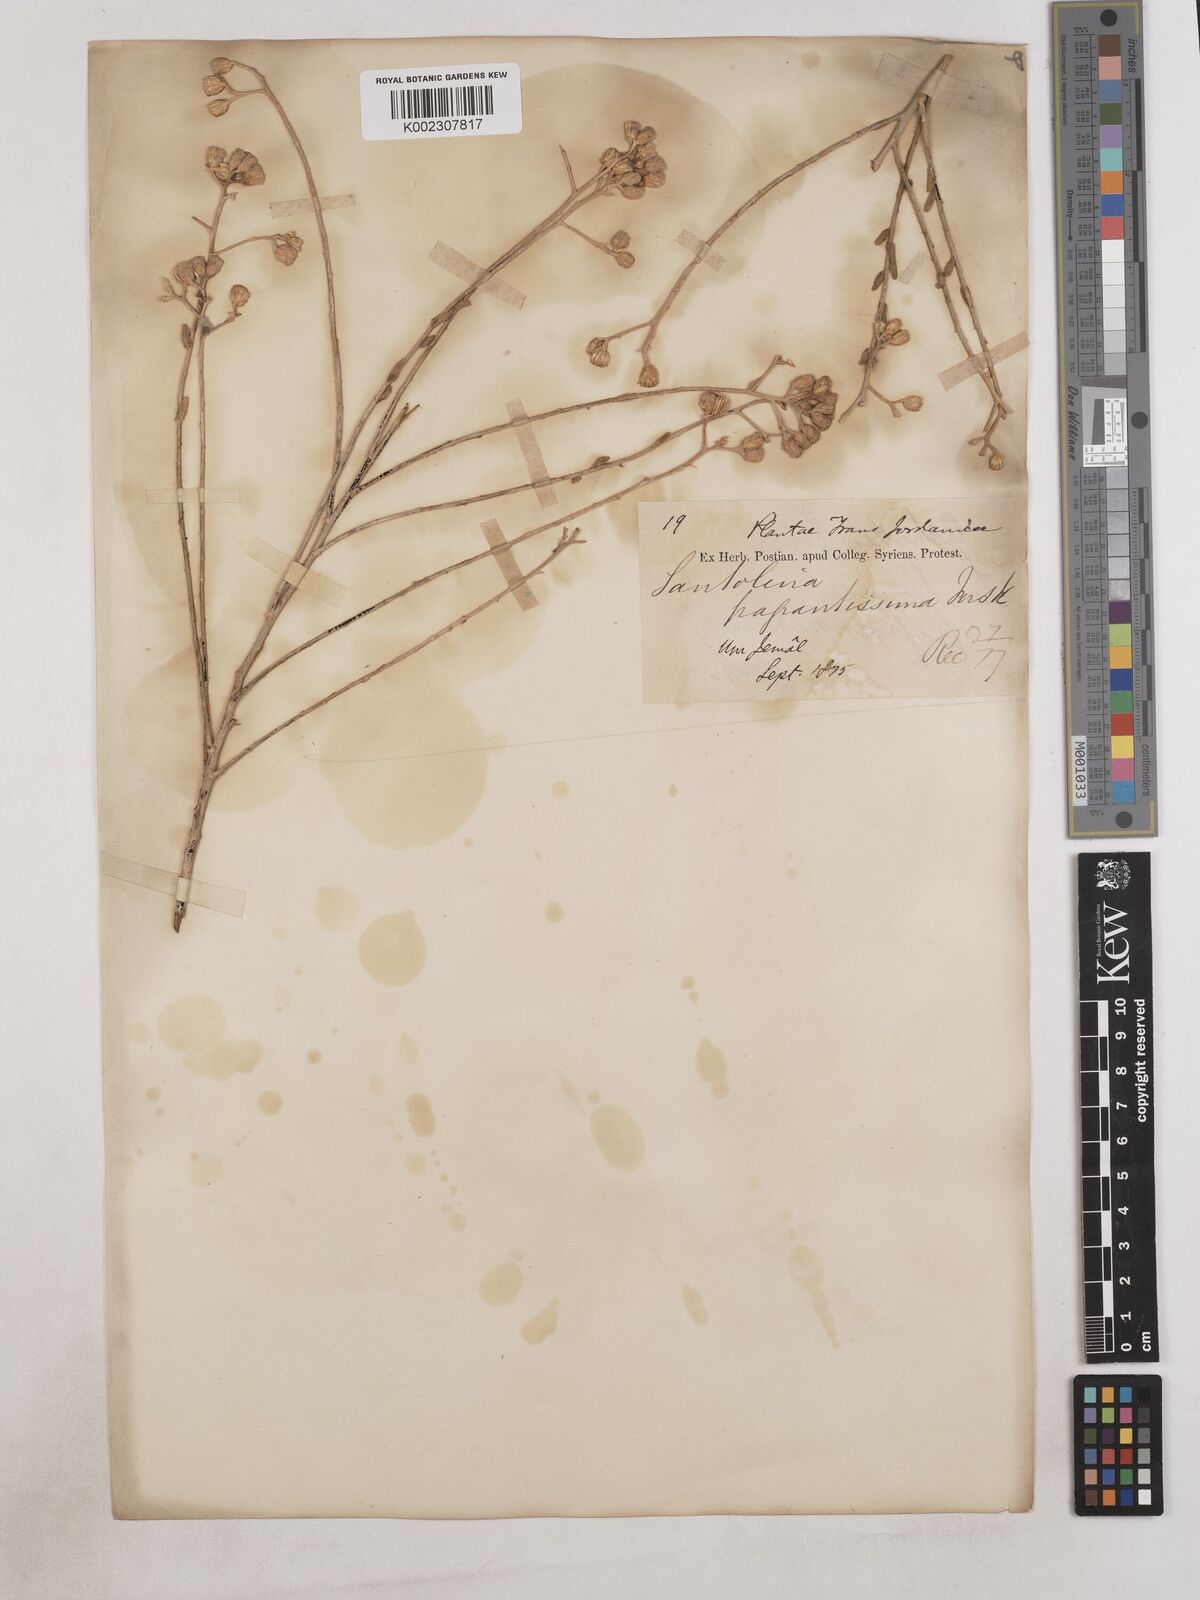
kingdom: Plantae
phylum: Tracheophyta
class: Magnoliopsida
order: Asterales
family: Asteraceae
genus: Achillea
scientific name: Achillea fragrantissima
